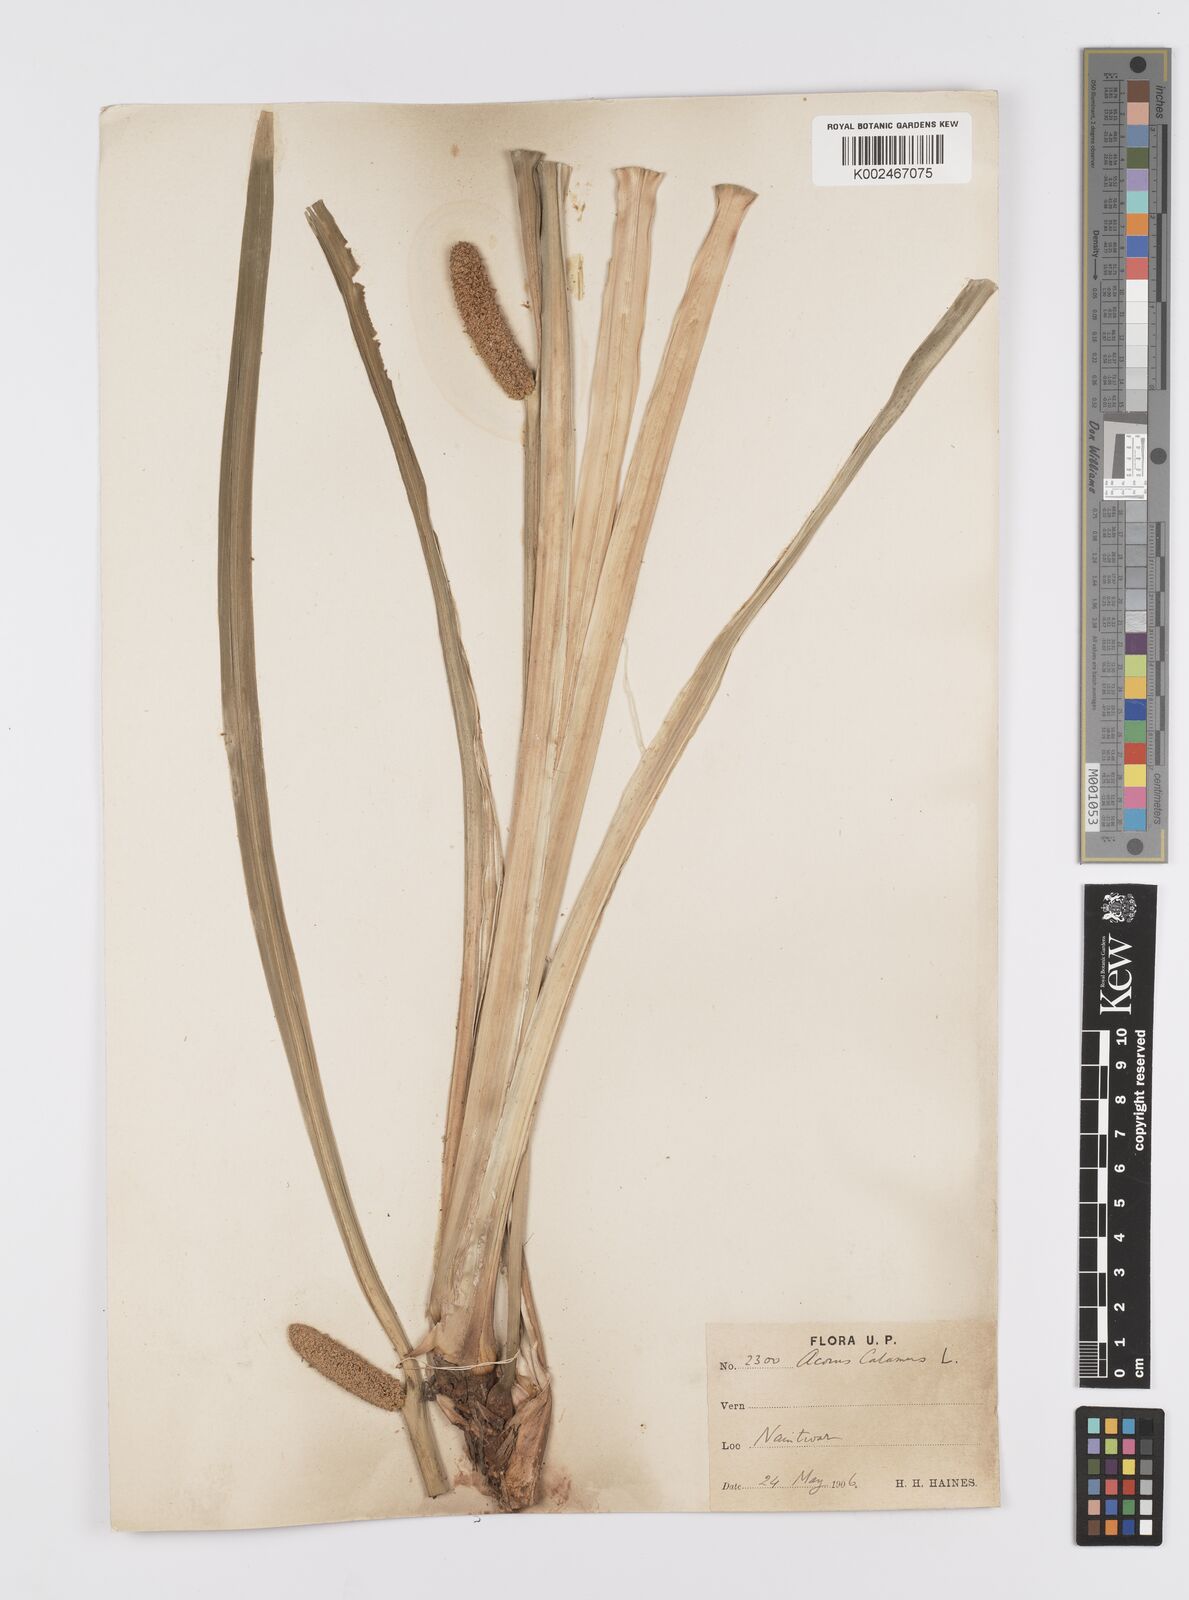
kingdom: Plantae
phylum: Tracheophyta
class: Liliopsida
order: Acorales
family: Acoraceae
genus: Acorus
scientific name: Acorus calamus
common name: Sweet-flag
